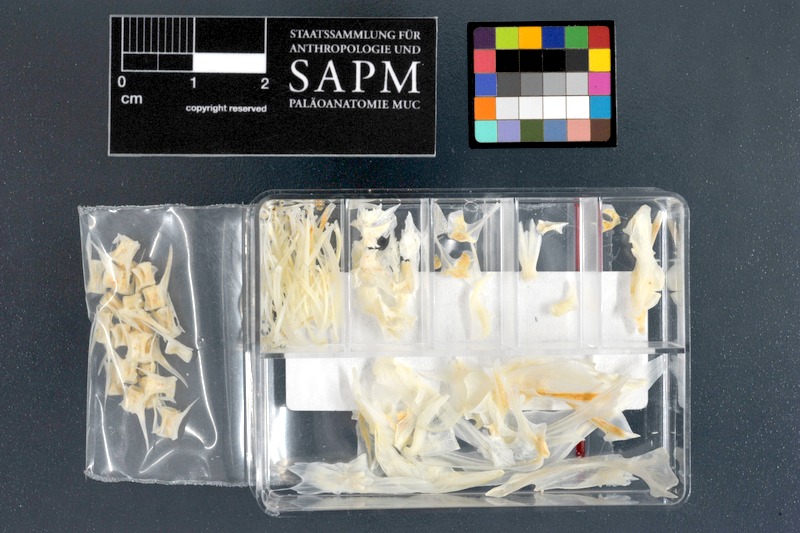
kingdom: Animalia
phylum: Chordata
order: Scorpaeniformes
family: Platycephalidae
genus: Platycephalus
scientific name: Platycephalus indicus
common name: Bartail flathead
